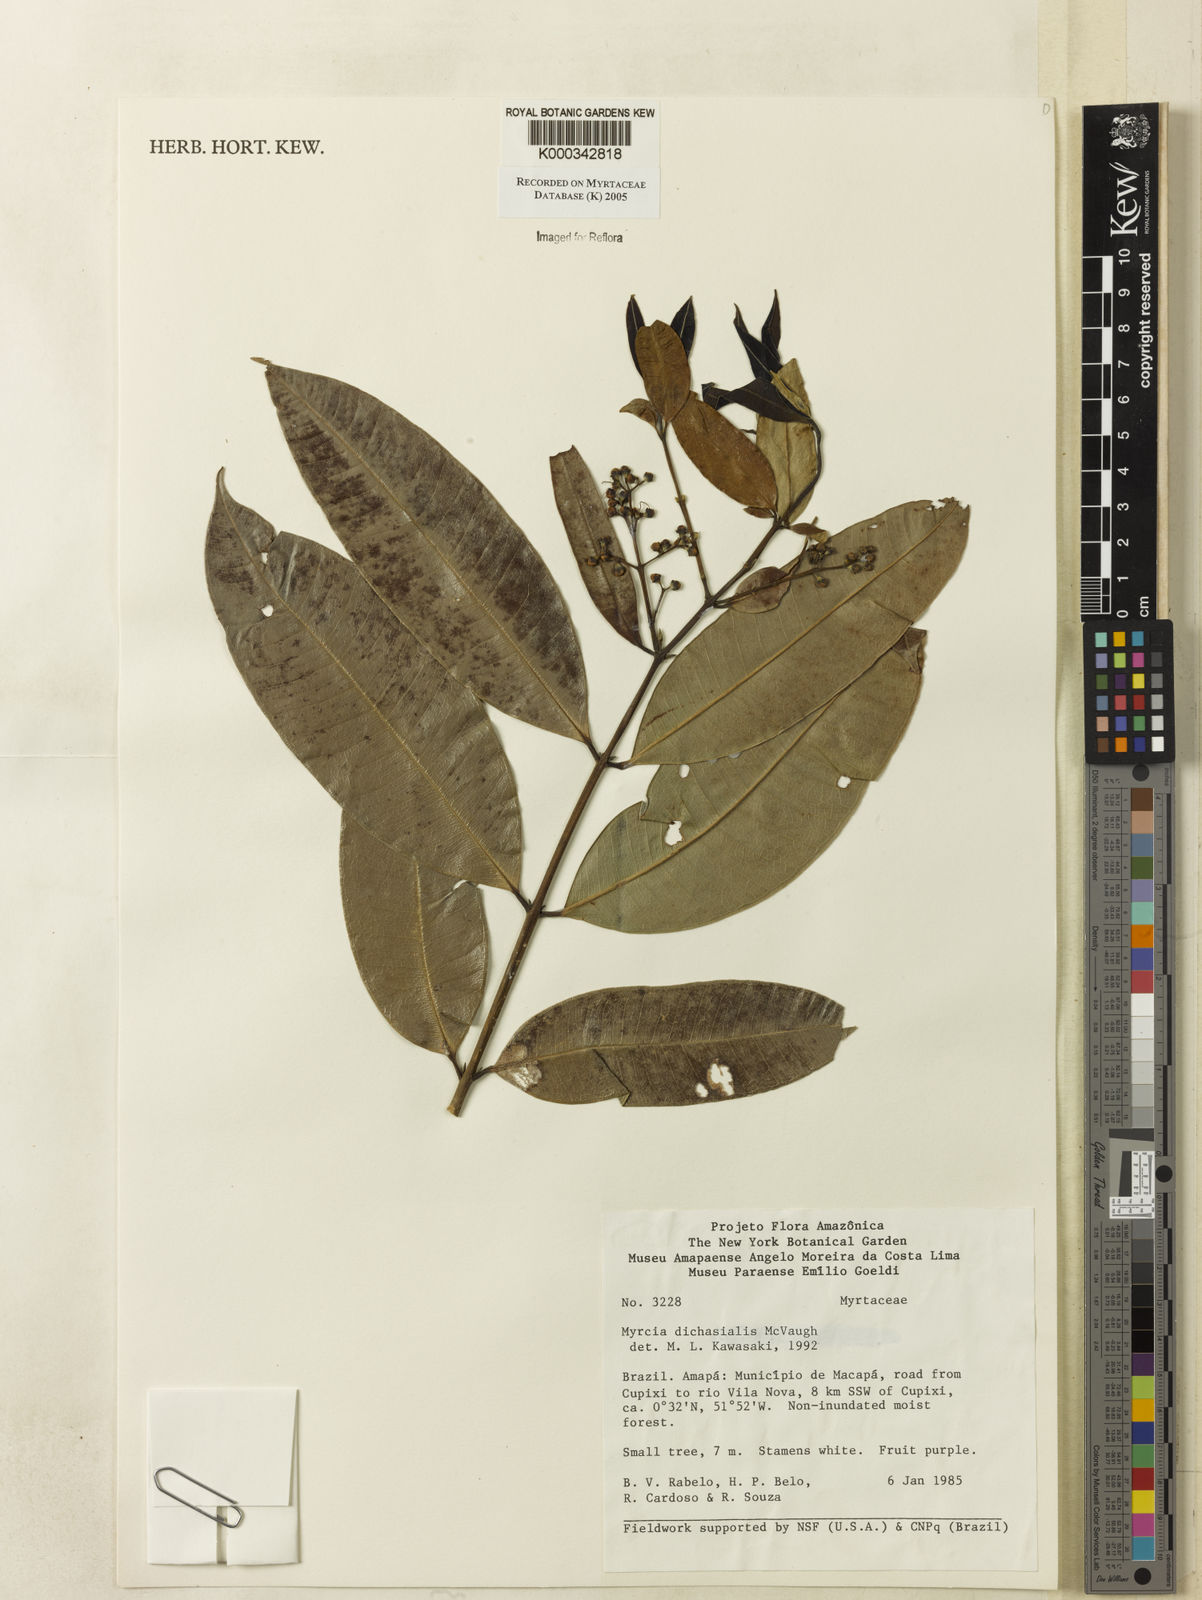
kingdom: Plantae
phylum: Tracheophyta
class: Magnoliopsida
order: Myrtales
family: Myrtaceae
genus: Myrcia
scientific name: Myrcia dichasialis
